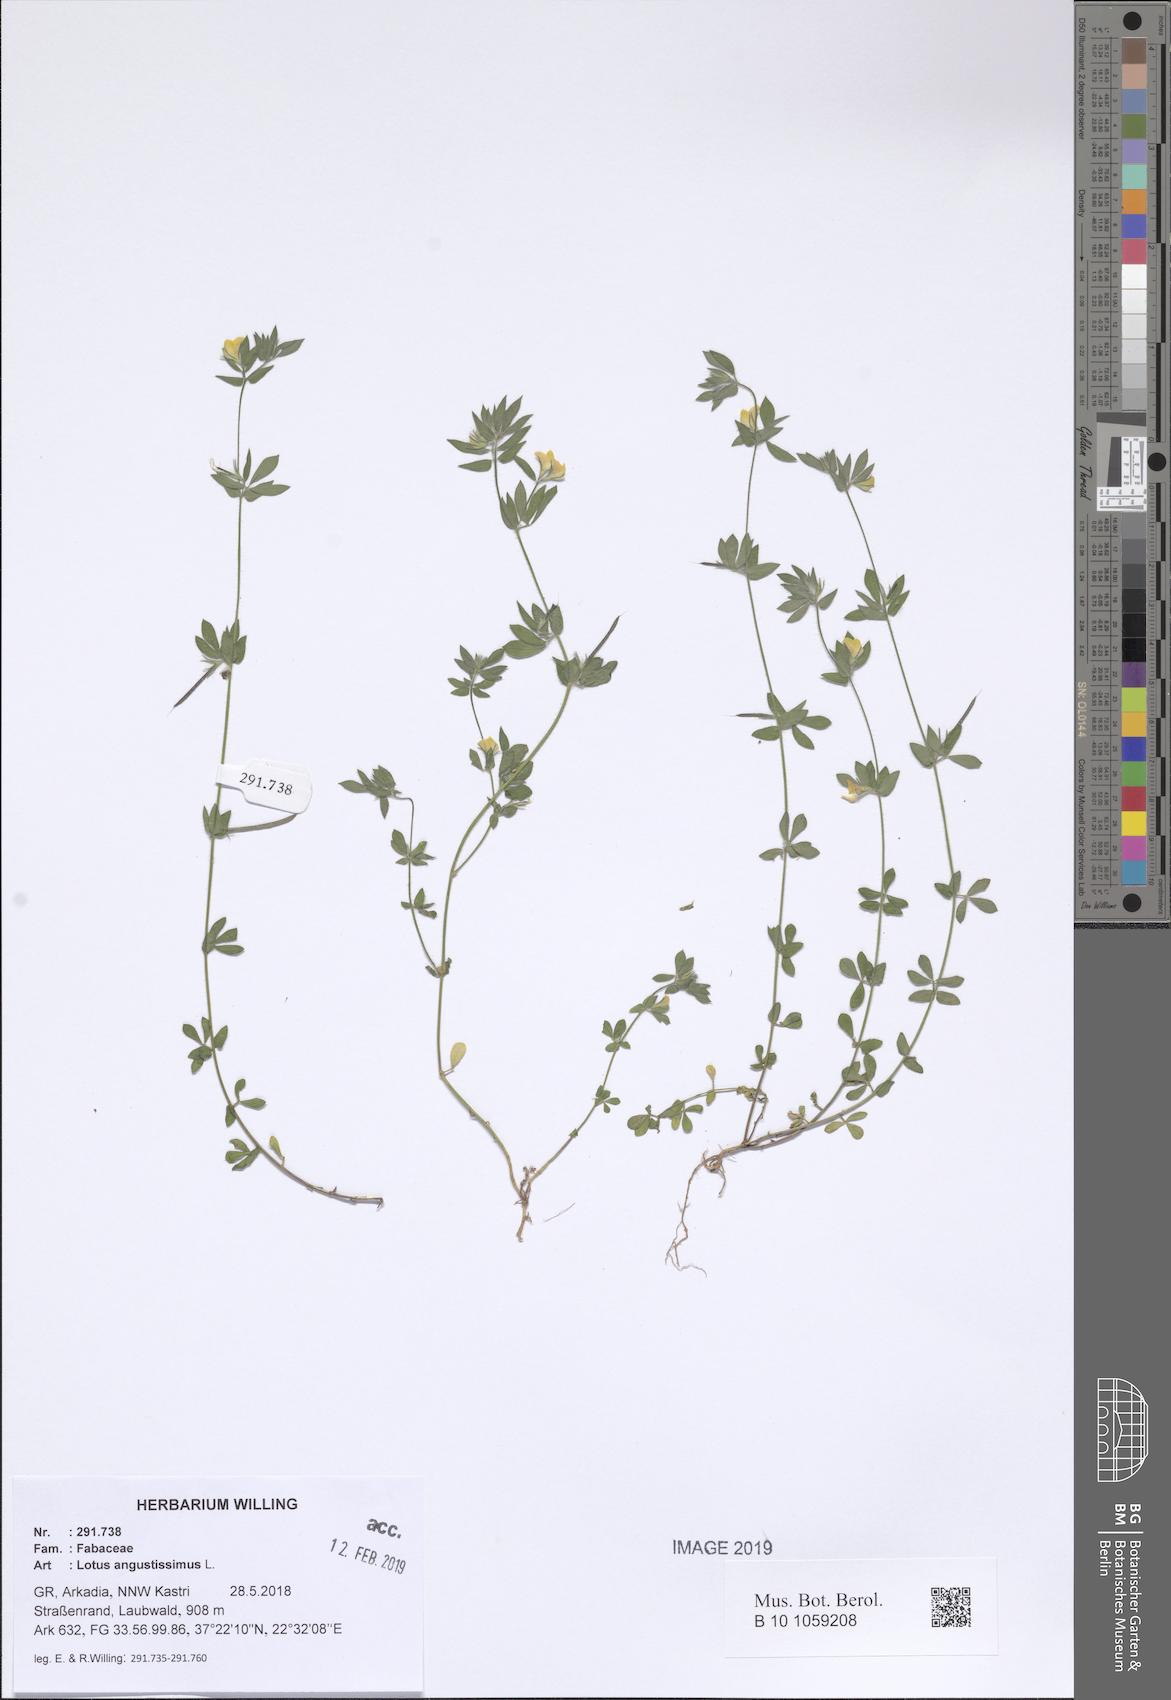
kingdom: Plantae
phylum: Tracheophyta
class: Magnoliopsida
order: Fabales
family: Fabaceae
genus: Lotus
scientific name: Lotus angustissimus
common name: Slender bird's-foot trefoil
